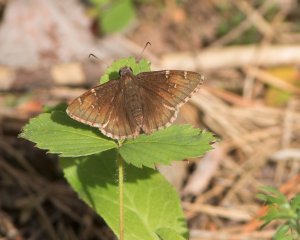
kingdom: Animalia
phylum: Arthropoda
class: Insecta
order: Lepidoptera
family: Hesperiidae
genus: Autochton
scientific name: Autochton
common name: Northern Cloudywing
